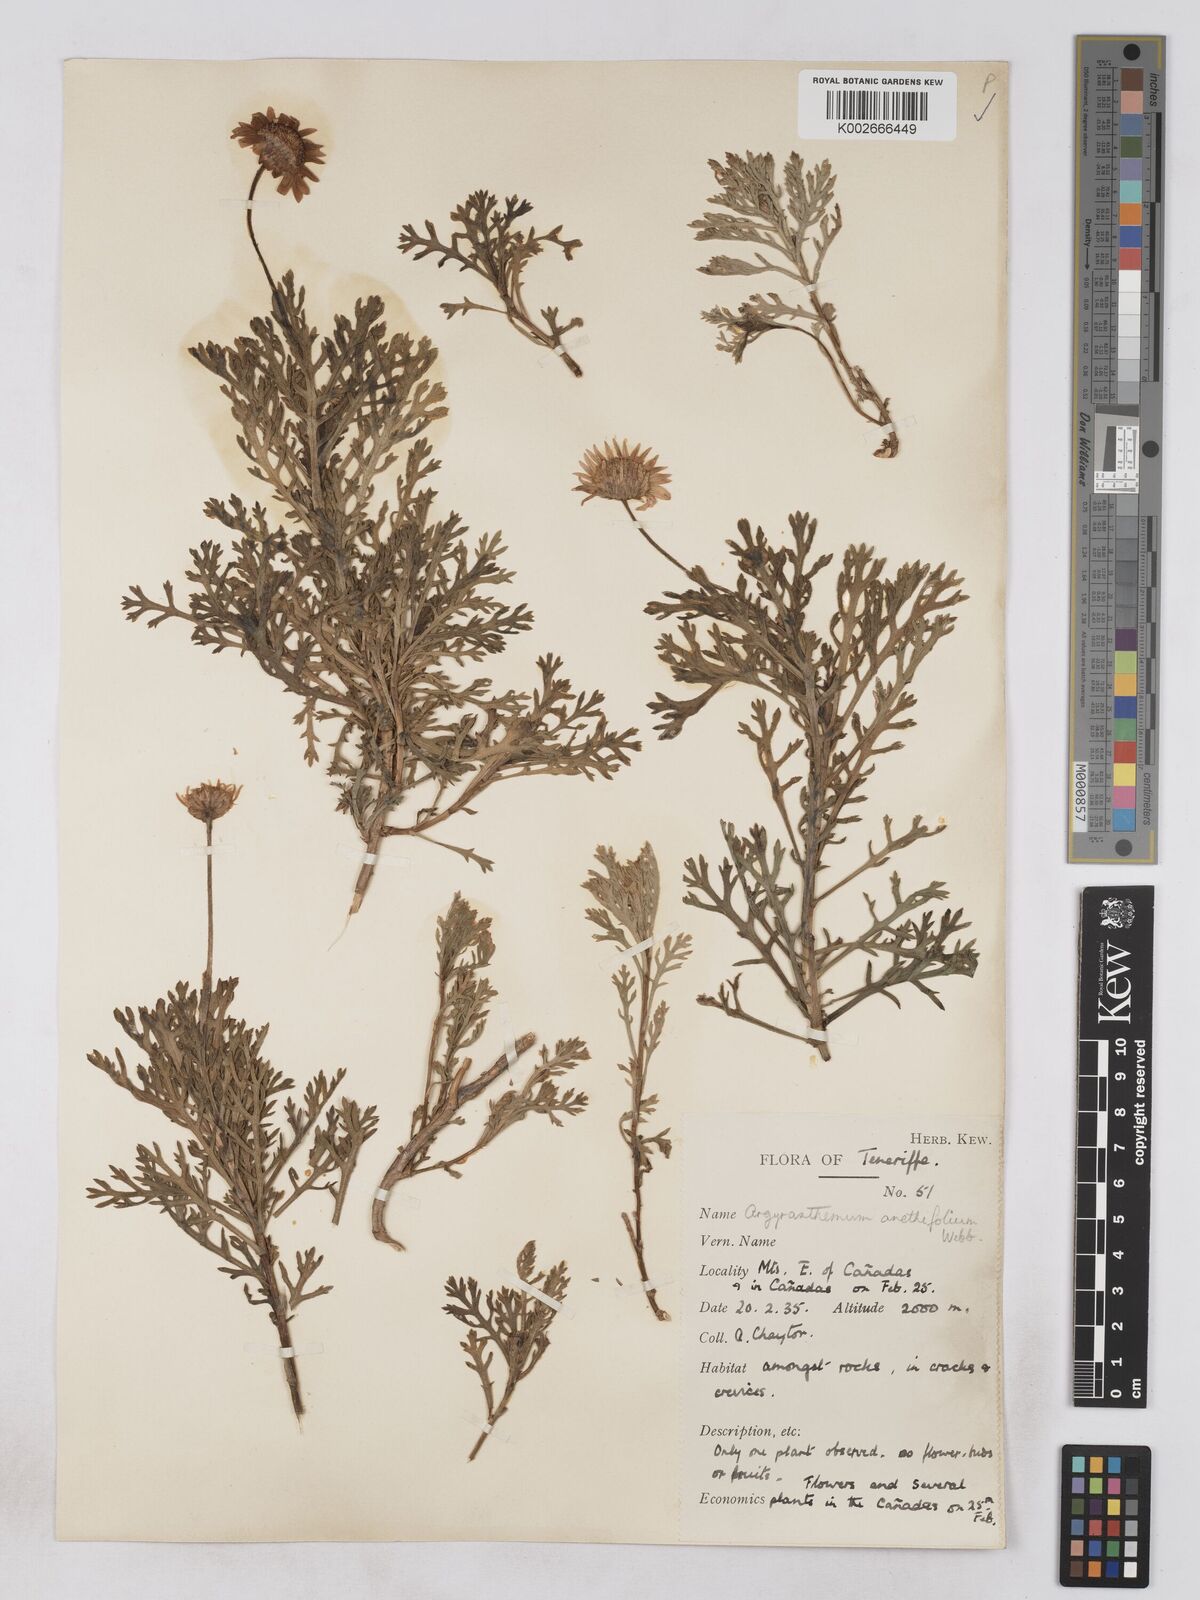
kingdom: Plantae
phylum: Tracheophyta
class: Magnoliopsida
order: Asterales
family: Asteraceae
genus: Argyranthemum
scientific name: Argyranthemum tenerifae
